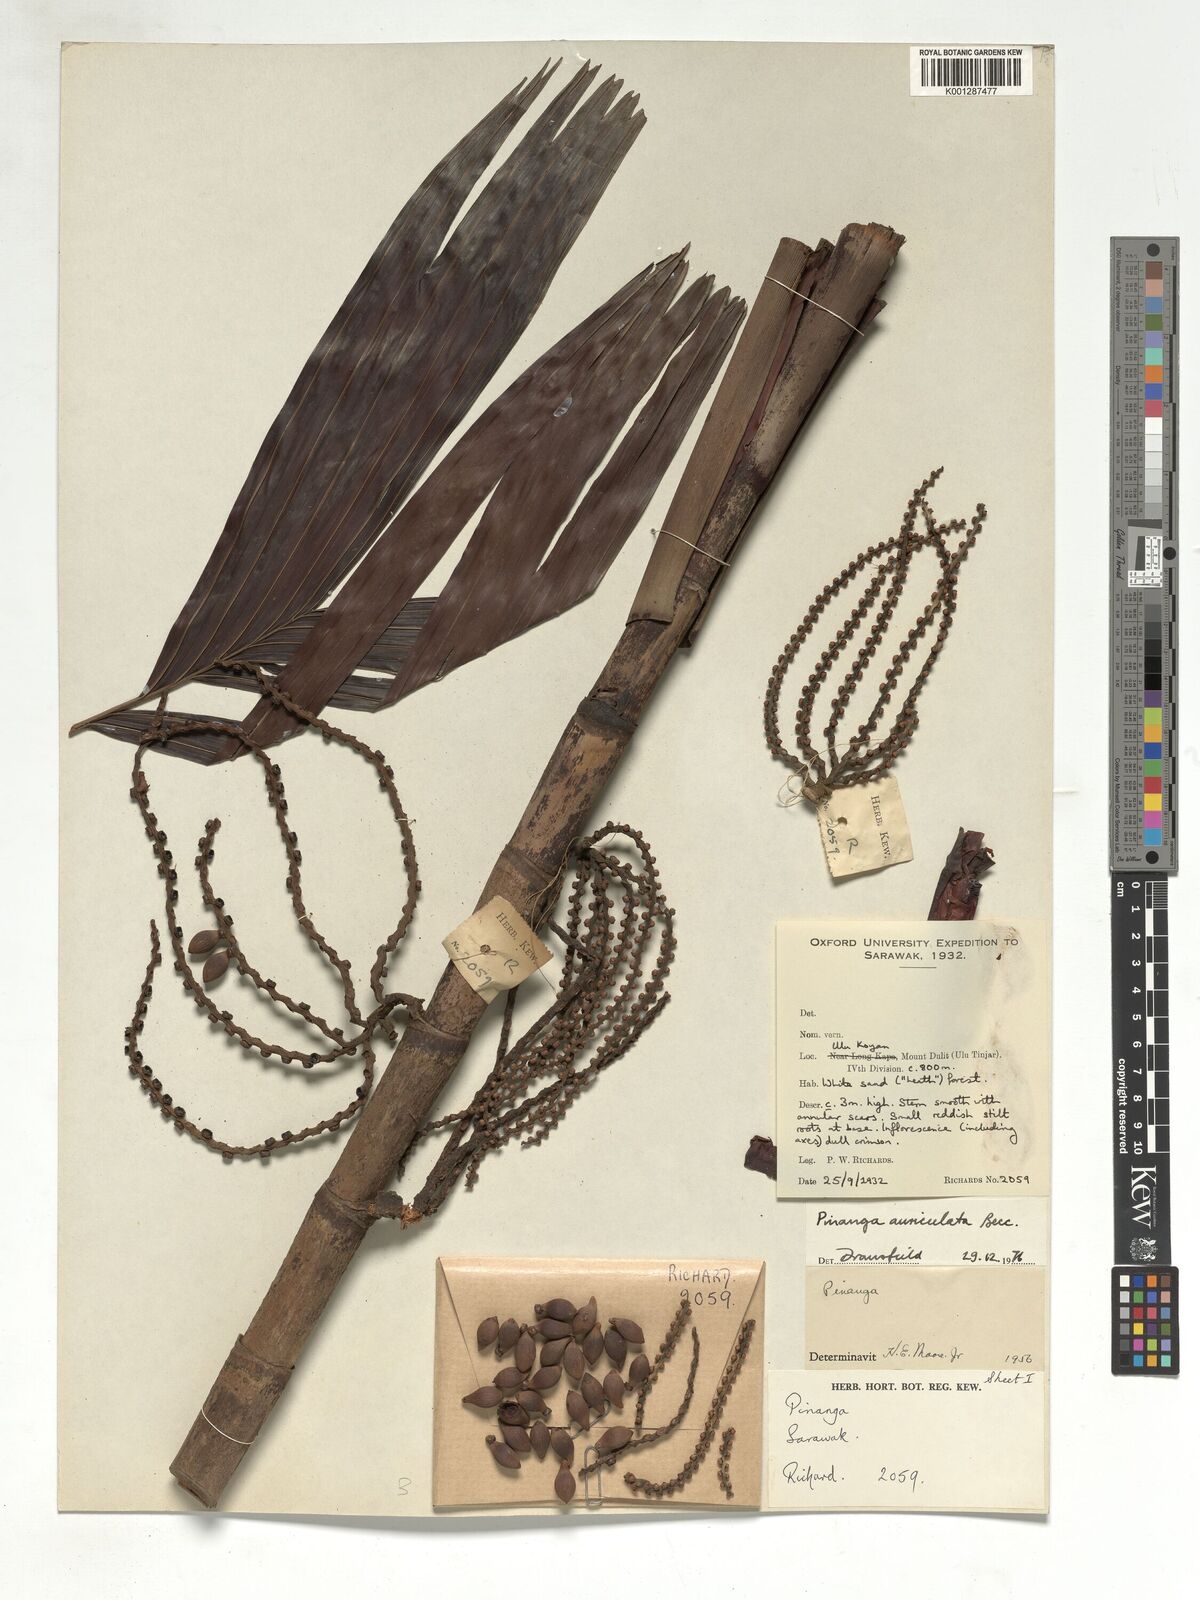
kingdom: Plantae
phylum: Tracheophyta
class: Liliopsida
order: Arecales
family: Arecaceae
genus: Pinanga
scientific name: Pinanga auriculata
